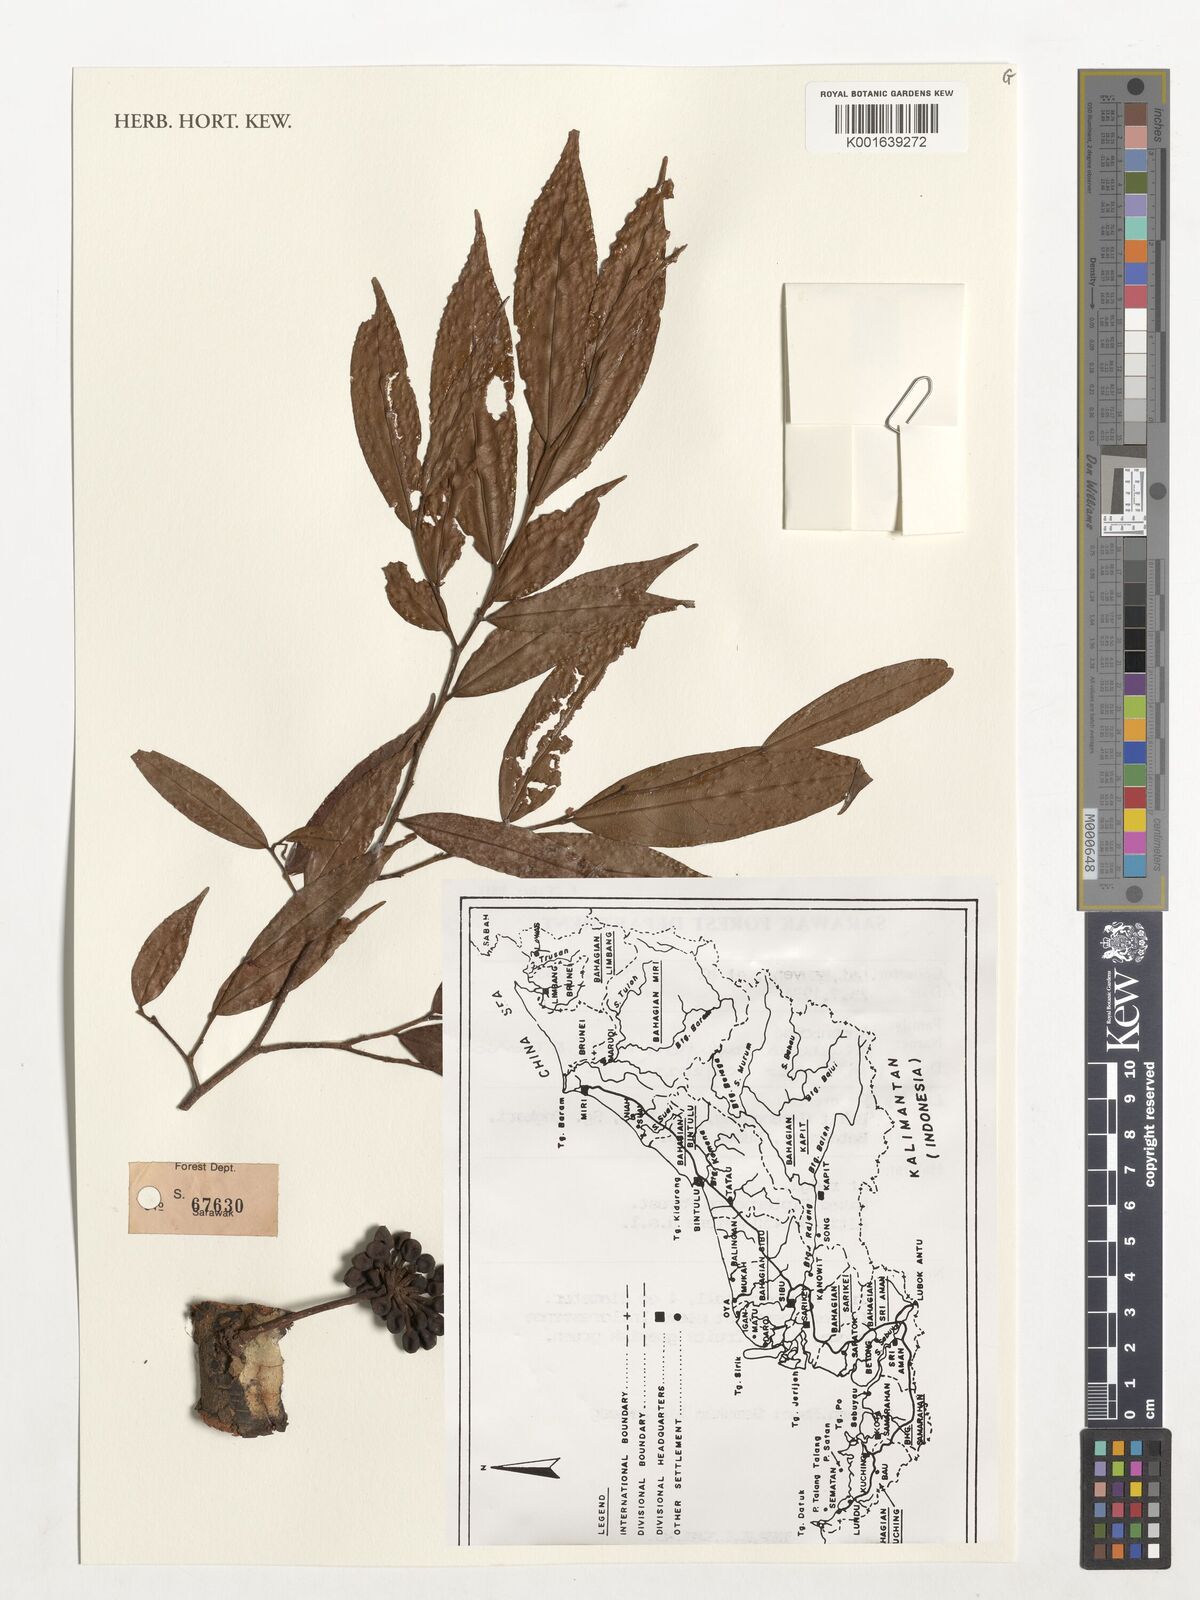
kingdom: Plantae
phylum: Tracheophyta
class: Magnoliopsida
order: Magnoliales
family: Annonaceae
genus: Polyalthia
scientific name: Polyalthia cauliflora
